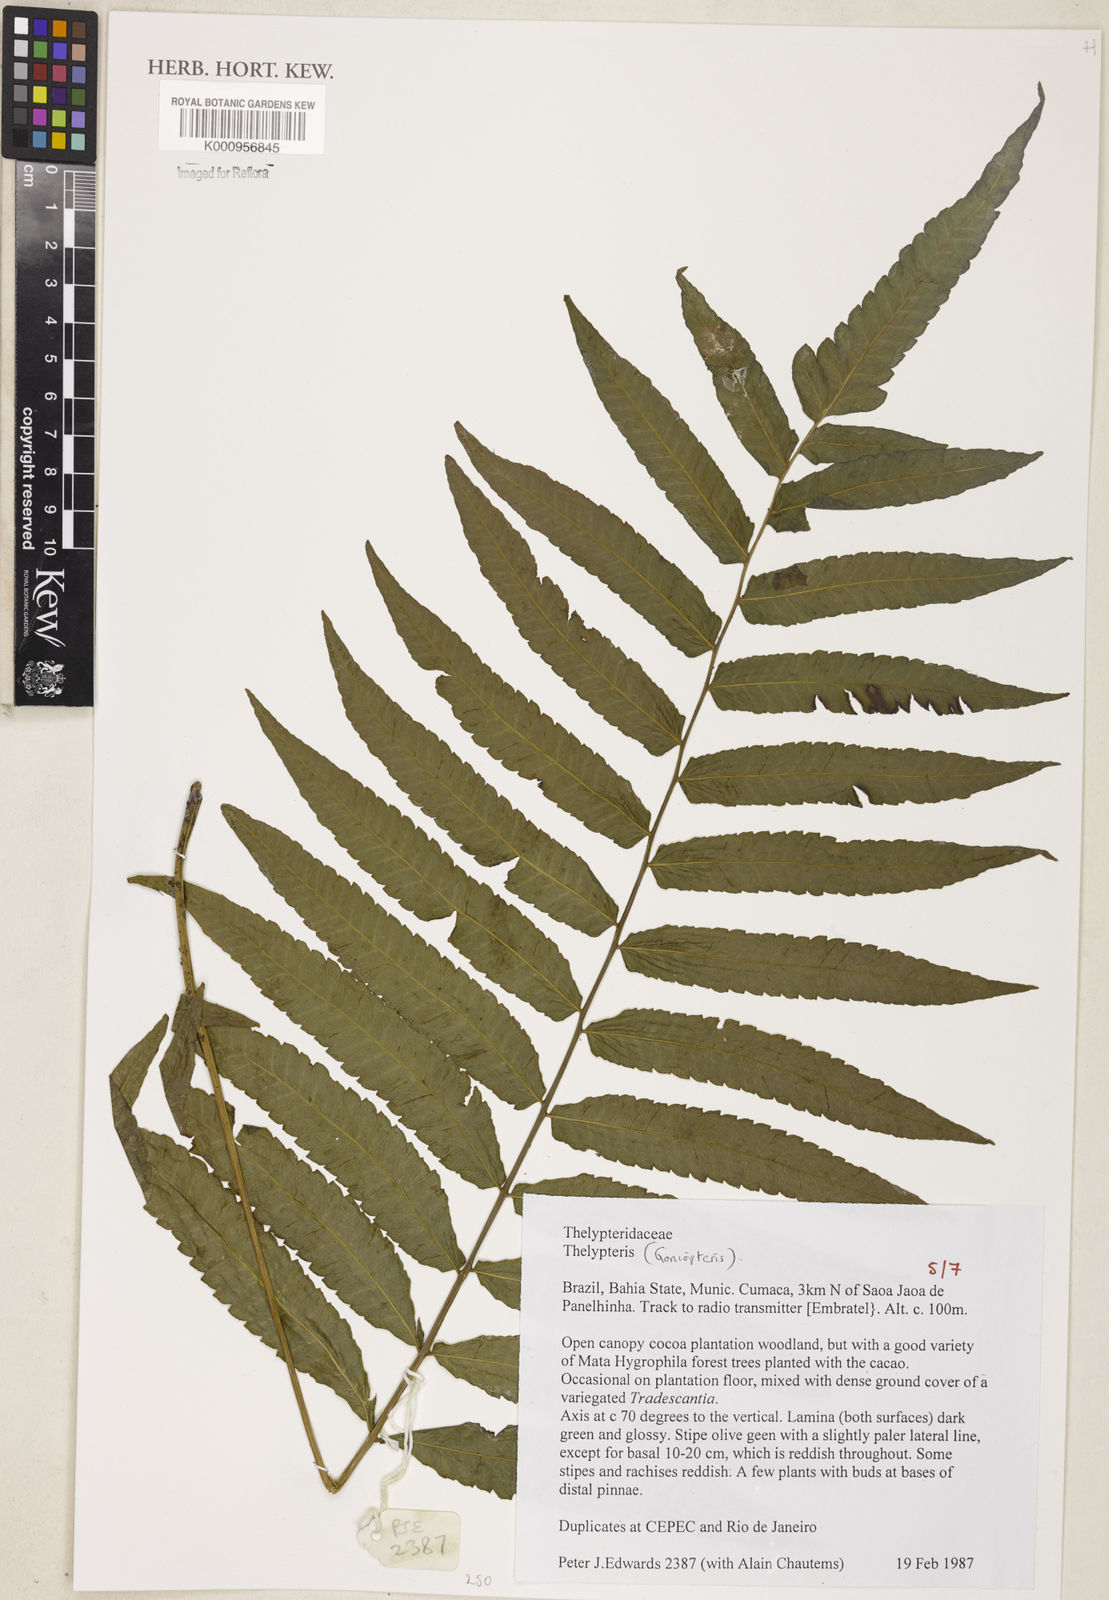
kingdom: Plantae
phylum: Tracheophyta
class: Polypodiopsida
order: Polypodiales
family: Thelypteridaceae
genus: Goniopteris
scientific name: Goniopteris
